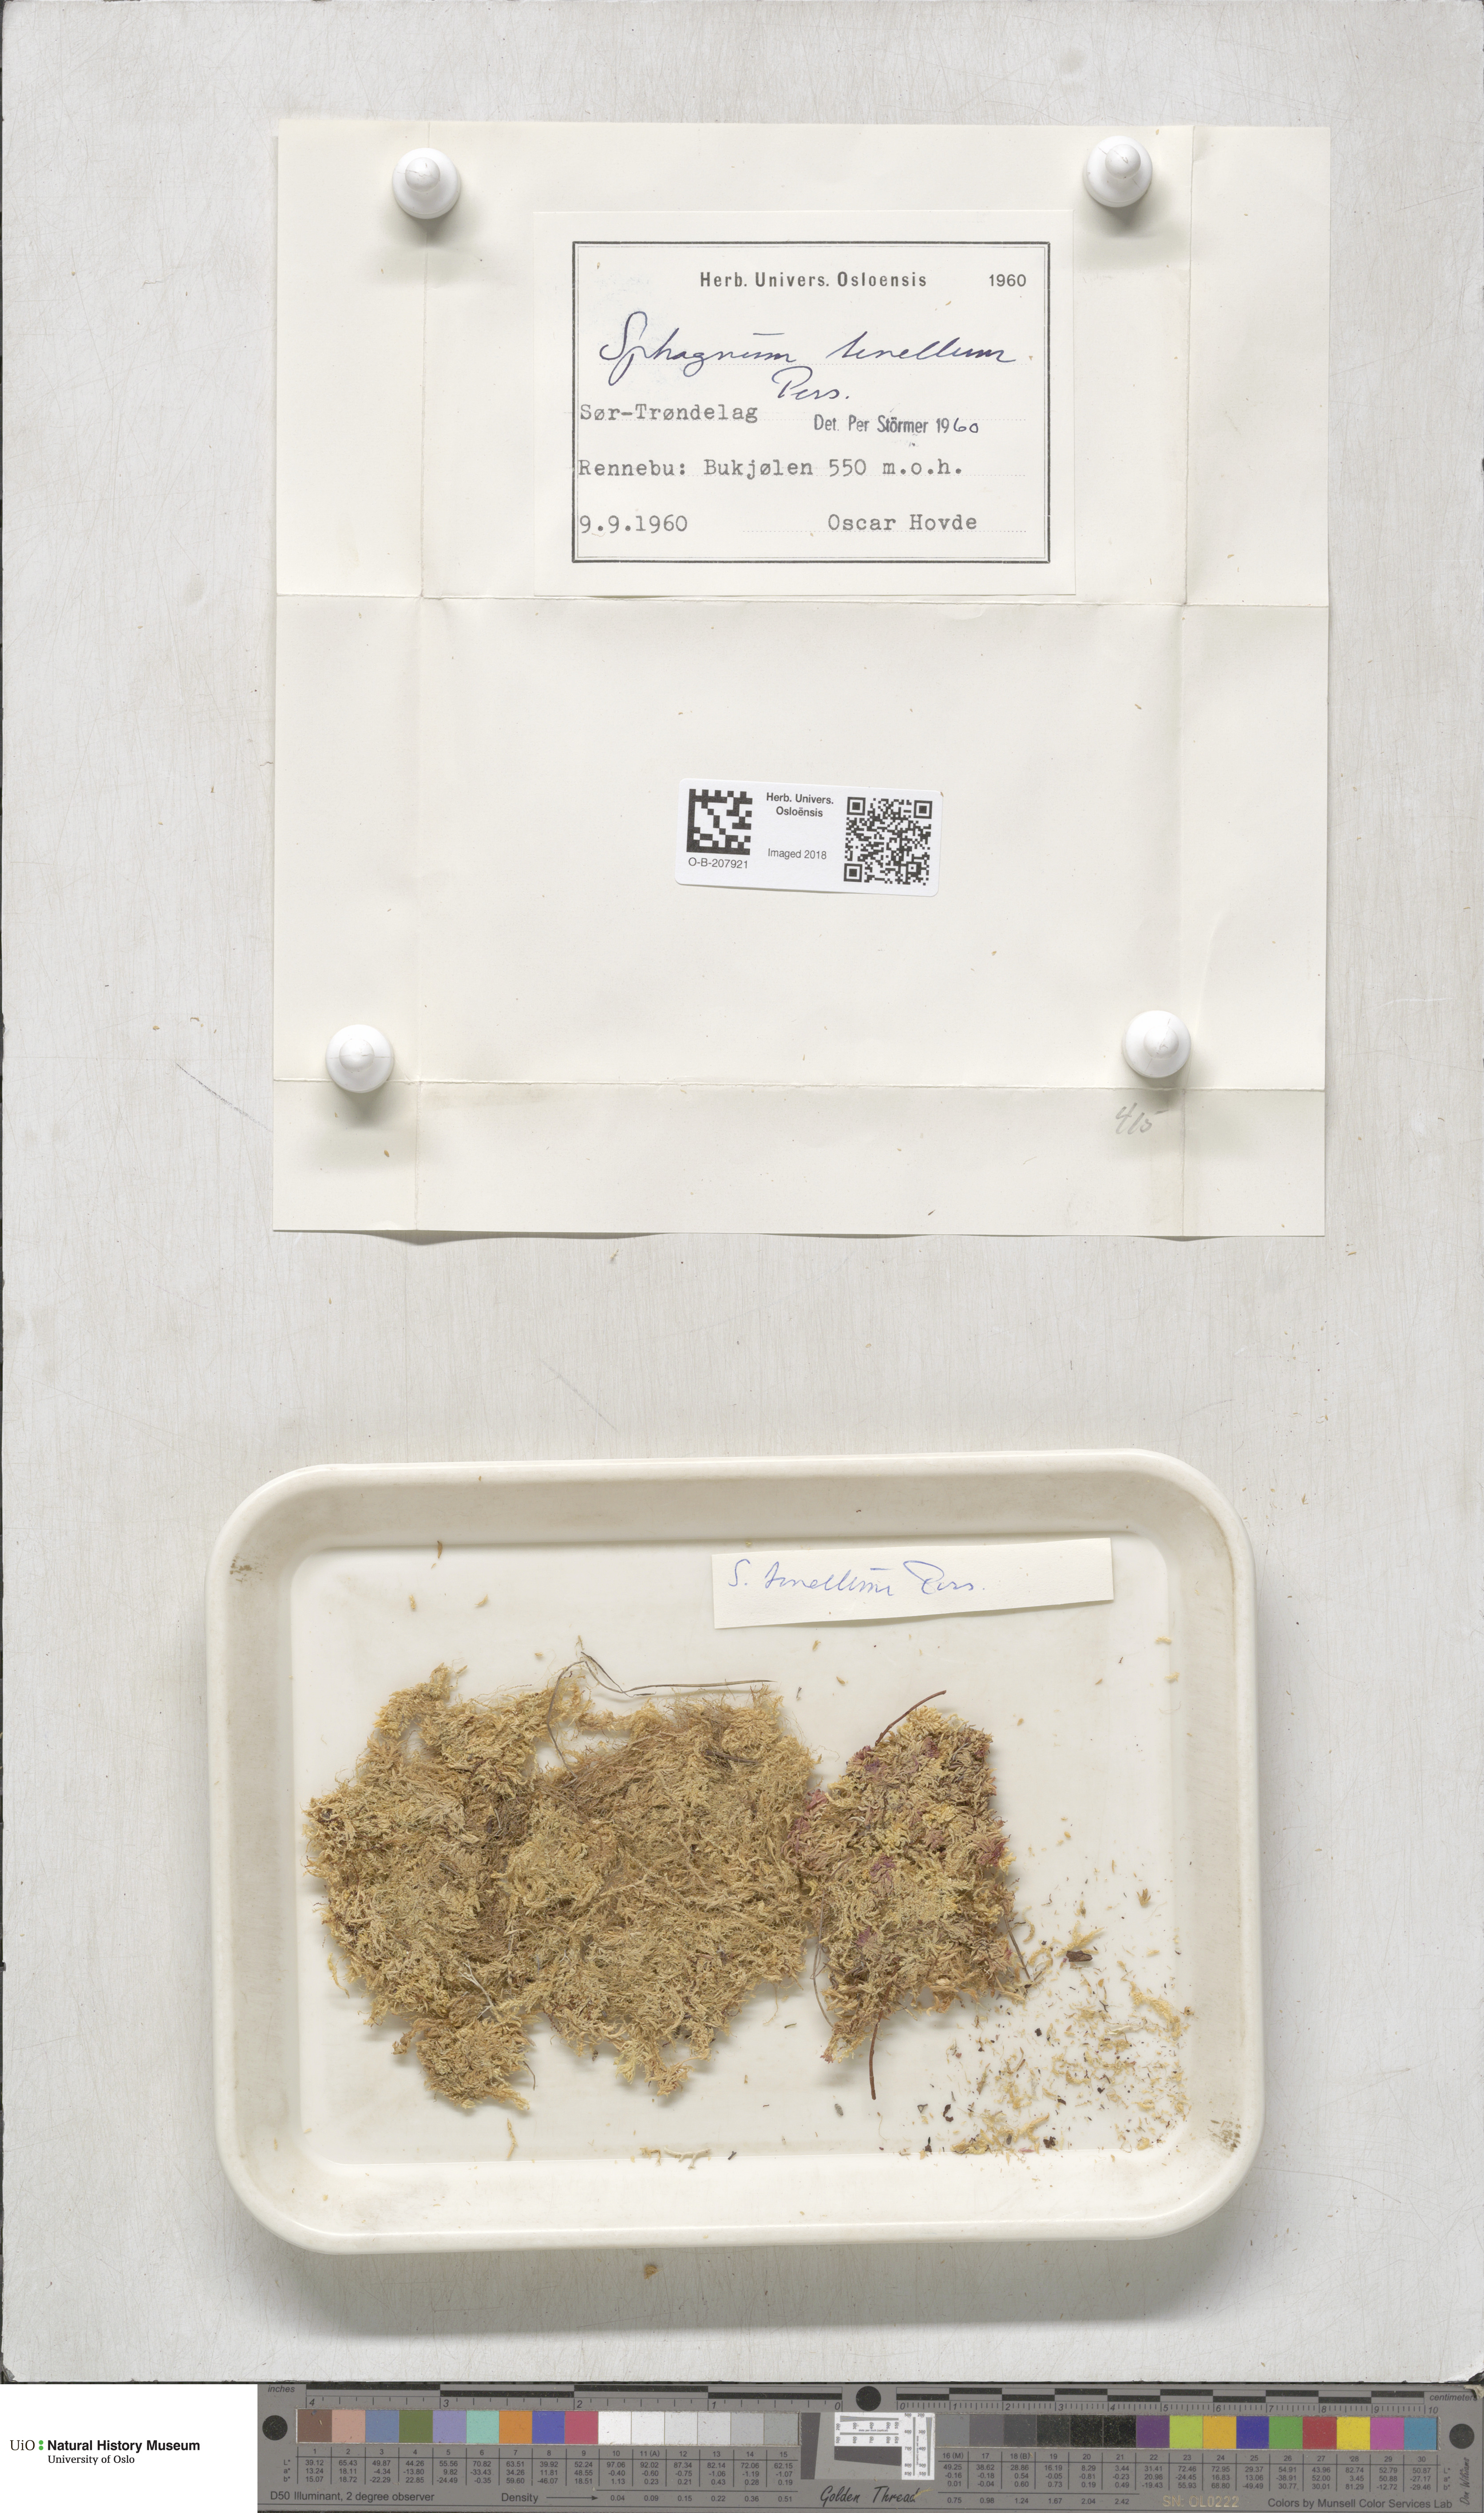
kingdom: Plantae
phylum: Bryophyta
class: Sphagnopsida
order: Sphagnales
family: Sphagnaceae
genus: Sphagnum
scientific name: Sphagnum tenellum
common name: Soft bog-moss
